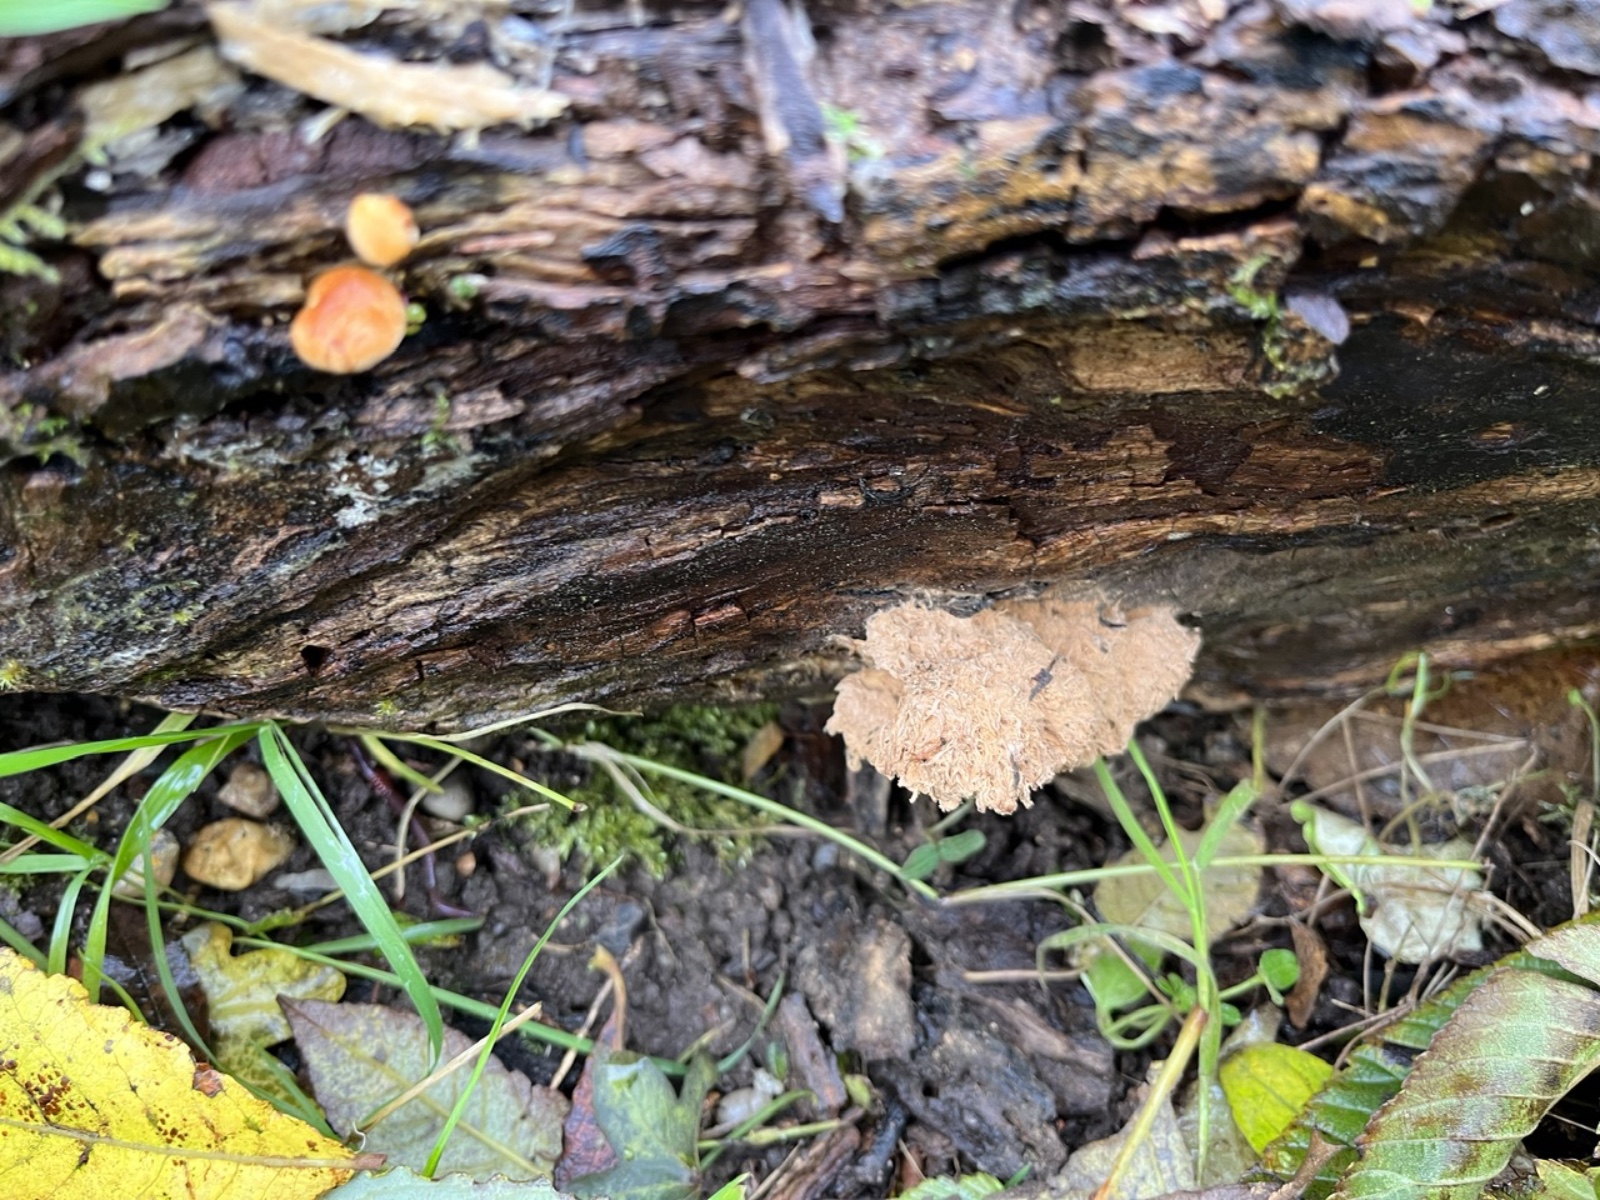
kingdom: Fungi
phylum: Basidiomycota
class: Agaricomycetes
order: Polyporales
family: Dacryobolaceae
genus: Postia
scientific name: Postia ptychogaster
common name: støvende kødporesvamp
